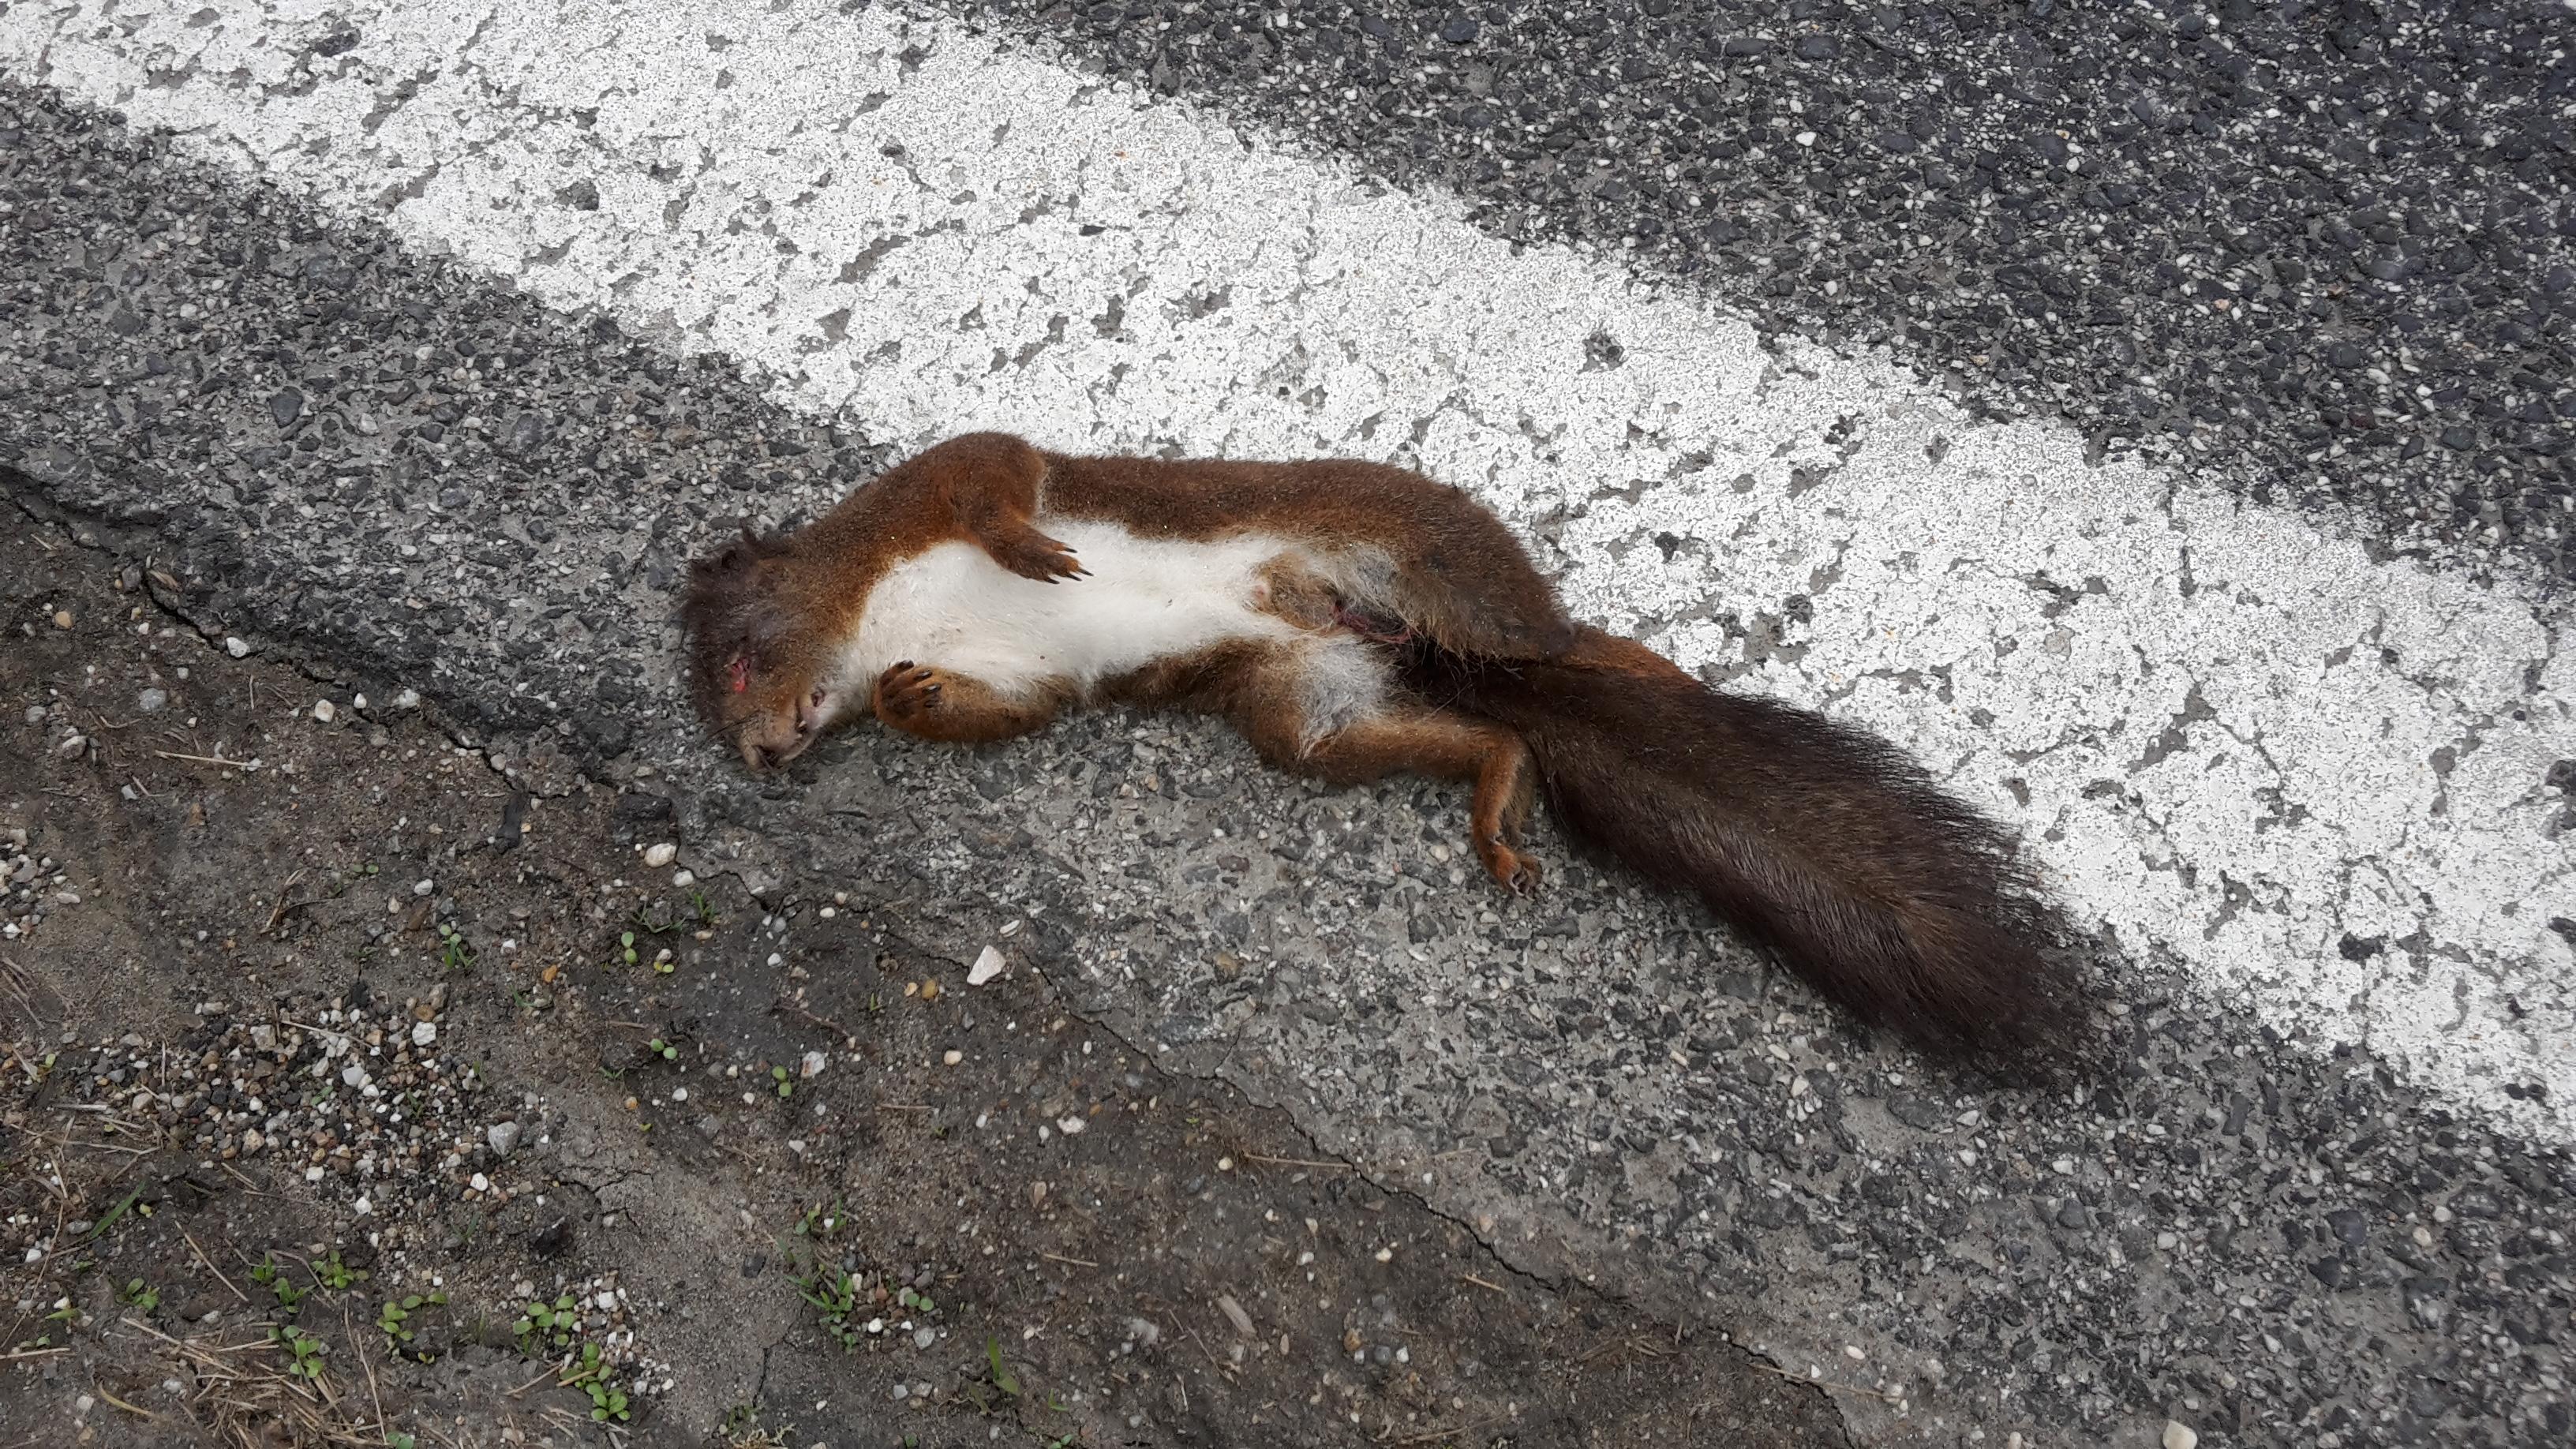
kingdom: Animalia
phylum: Chordata
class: Mammalia
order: Rodentia
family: Sciuridae
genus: Sciurus
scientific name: Sciurus vulgaris
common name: Eurasian red squirrel
